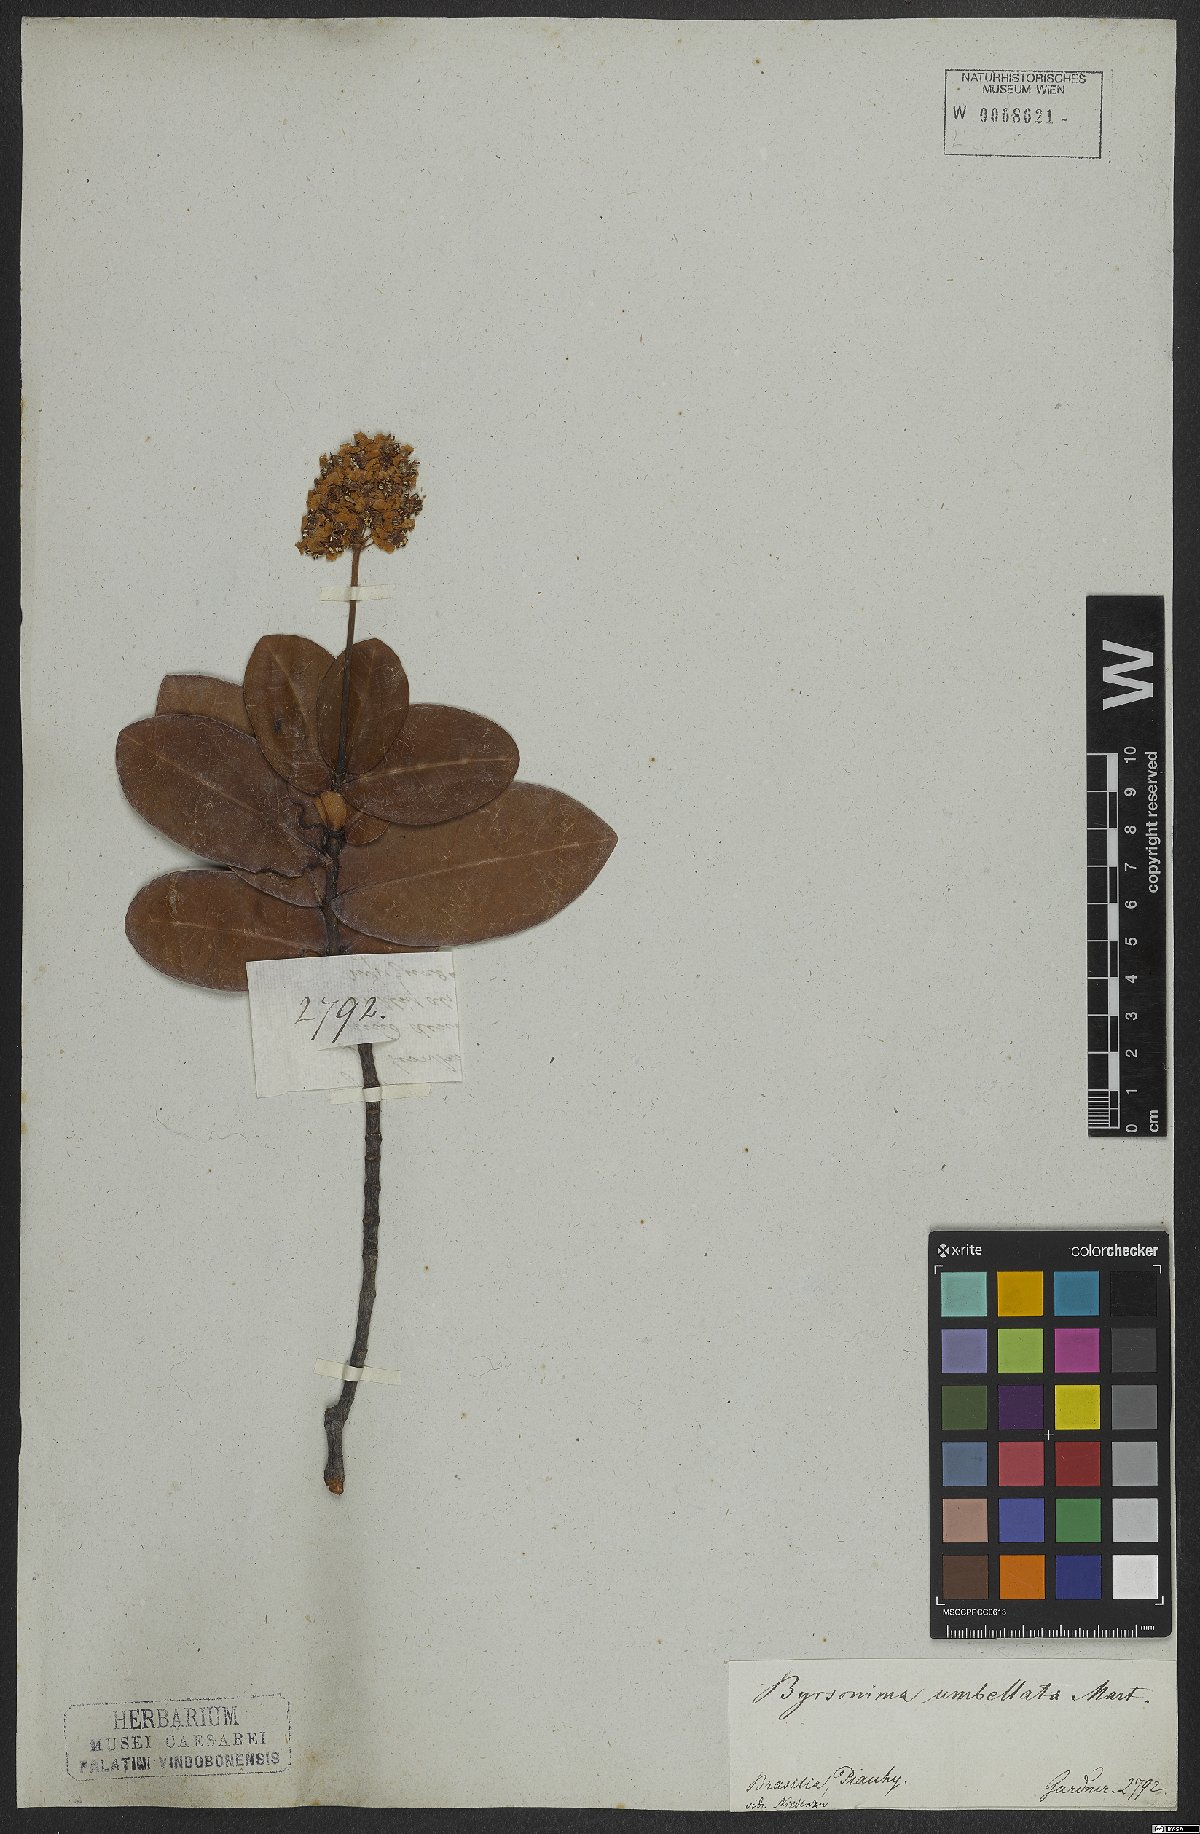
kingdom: Plantae
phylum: Tracheophyta
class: Magnoliopsida
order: Malpighiales
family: Malpighiaceae
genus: Byrsonima
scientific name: Byrsonima umbellata
